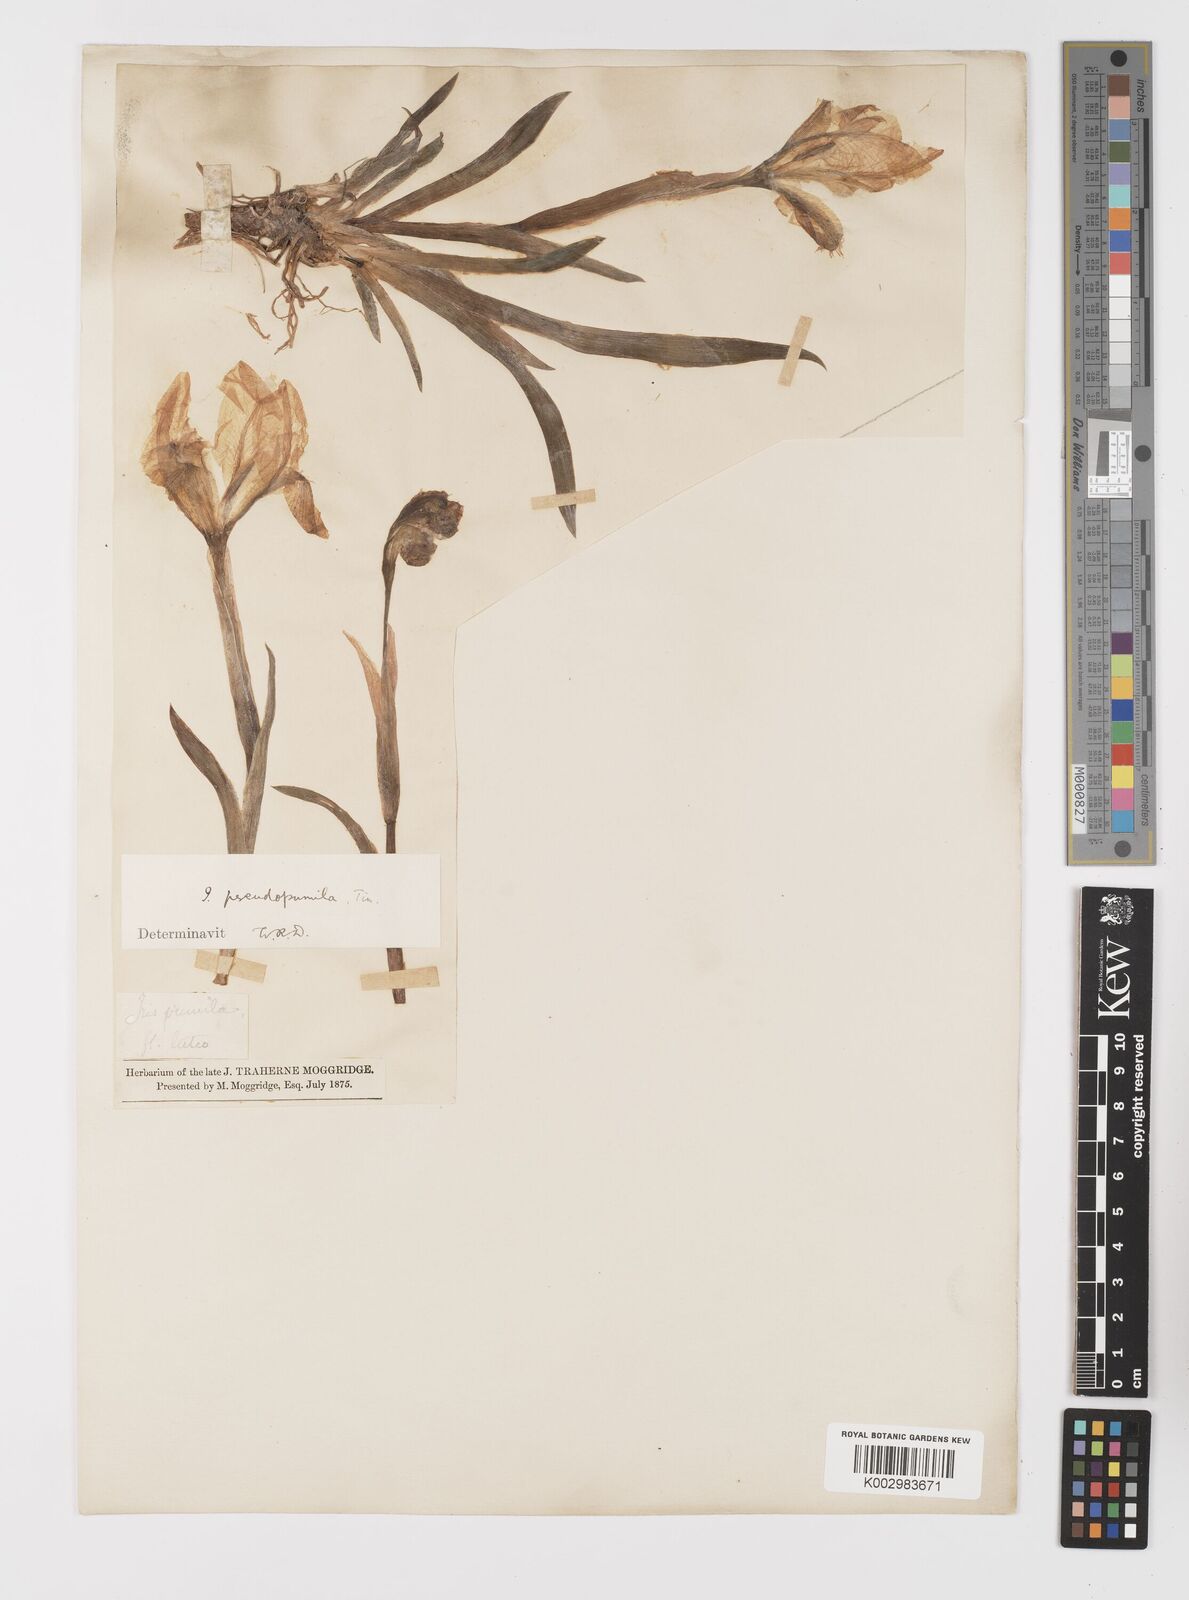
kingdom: Plantae
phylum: Tracheophyta
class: Liliopsida
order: Asparagales
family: Iridaceae
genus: Iris
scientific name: Iris pseudopumila
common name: Southern dwarf iris
